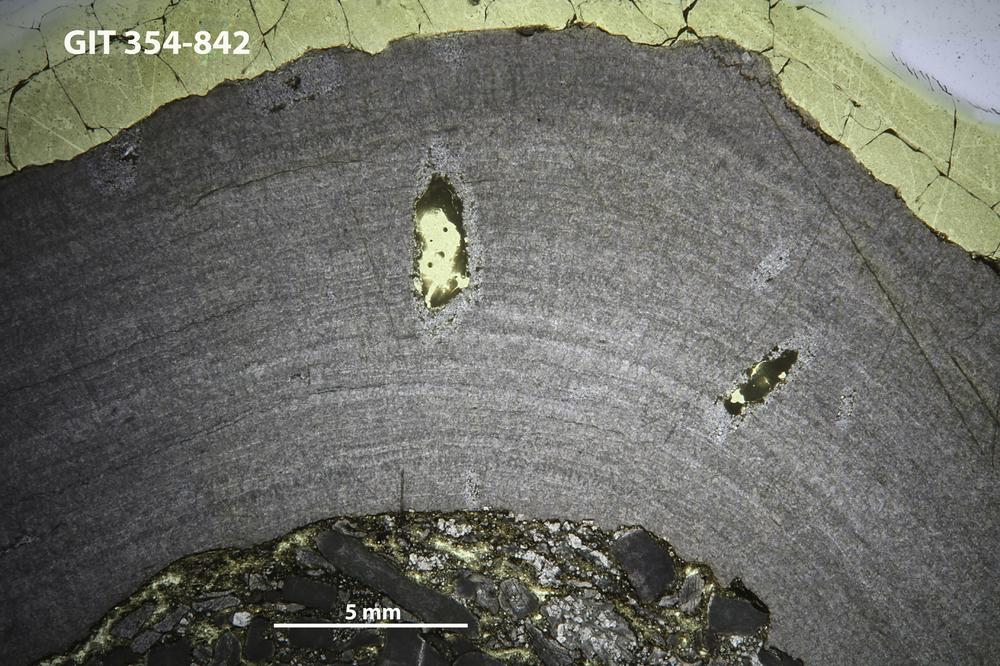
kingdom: Animalia
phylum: Porifera
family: Densastromatidae
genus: Densastroma
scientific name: Densastroma
